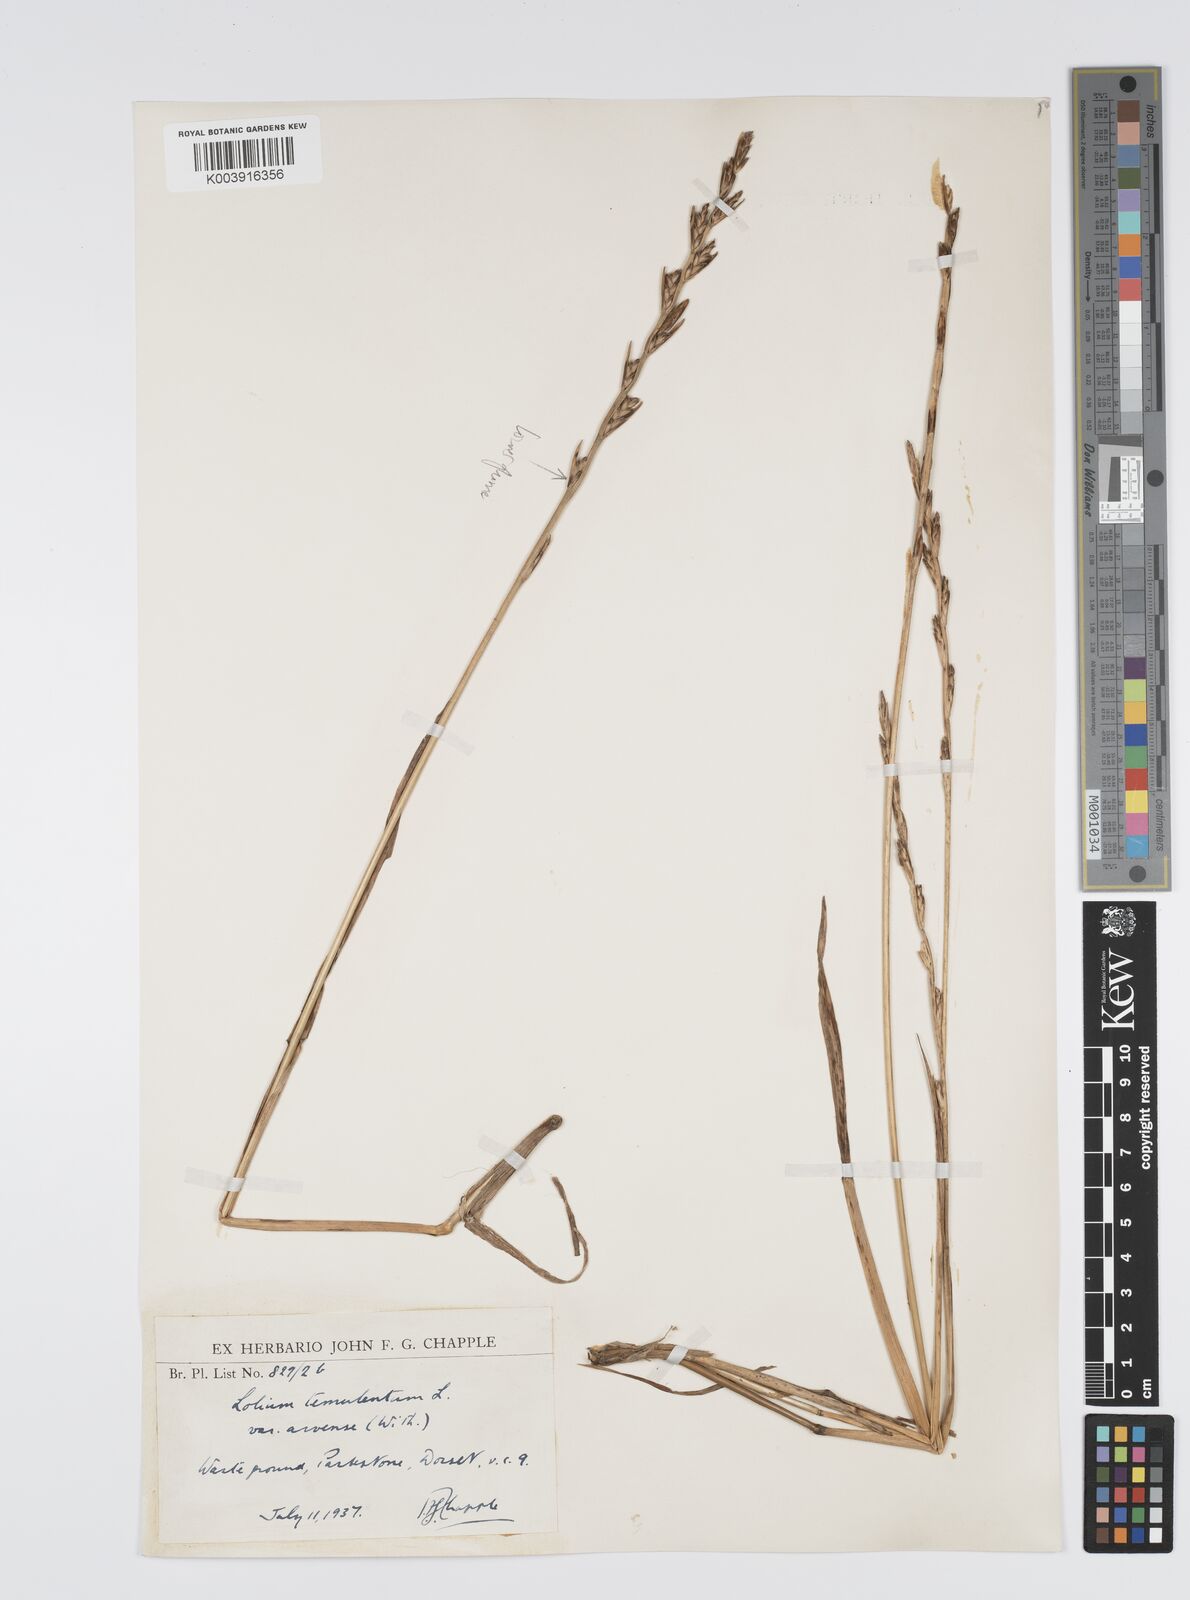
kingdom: Plantae
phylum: Tracheophyta
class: Liliopsida
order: Poales
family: Poaceae
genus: Lolium
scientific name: Lolium temulentum
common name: Darnel
